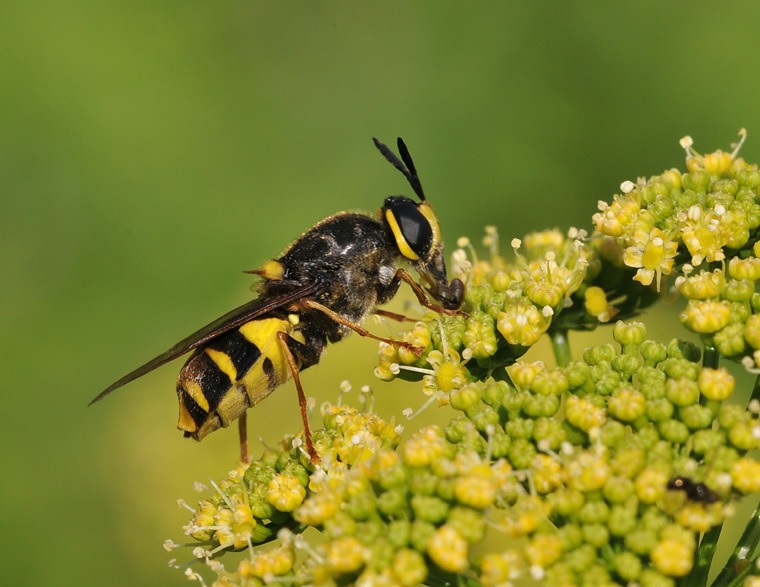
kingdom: Animalia
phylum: Arthropoda
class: Insecta
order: Diptera
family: Stratiomyidae
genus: Stratiomys
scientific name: Stratiomys potamida
